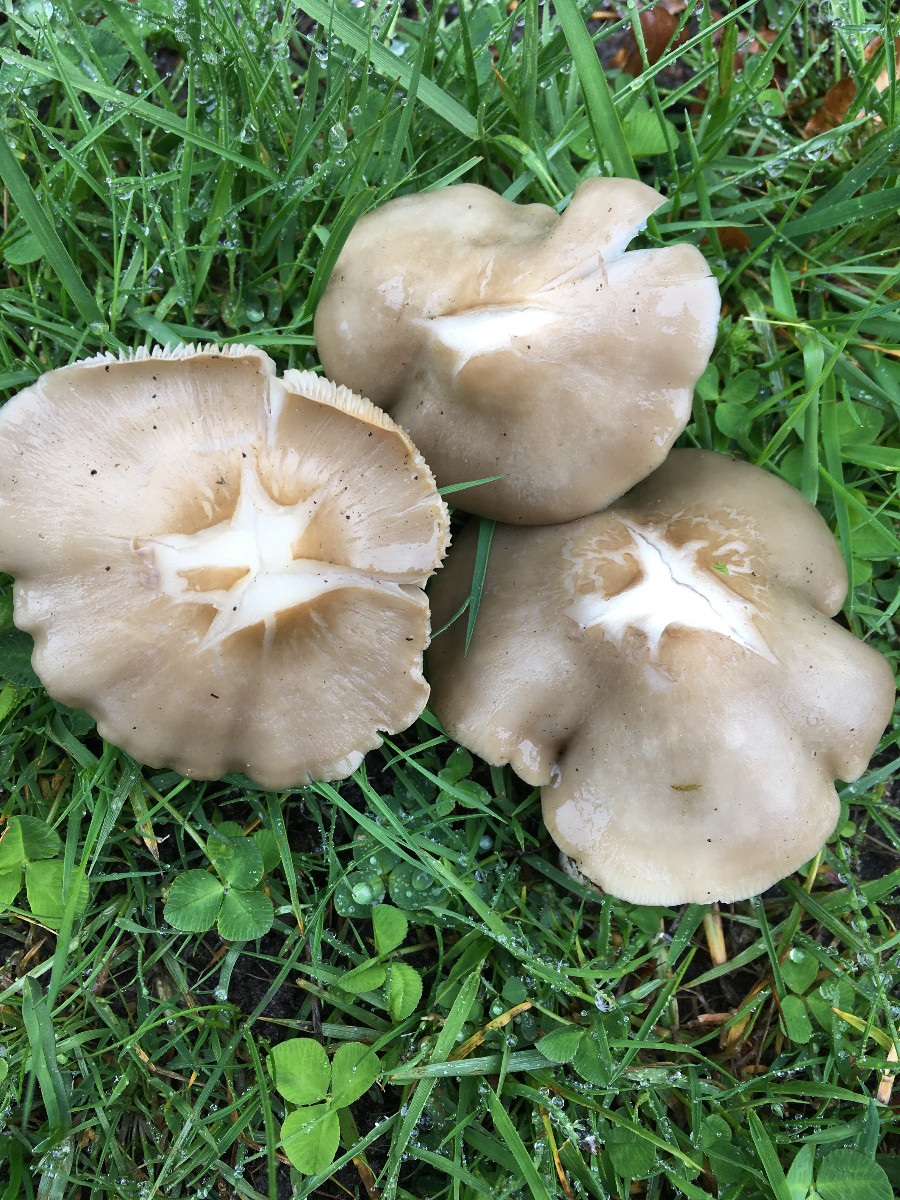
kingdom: Fungi
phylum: Basidiomycota
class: Agaricomycetes
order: Agaricales
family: Entolomataceae
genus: Entoloma
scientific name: Entoloma clypeatum
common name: flammet rødblad
